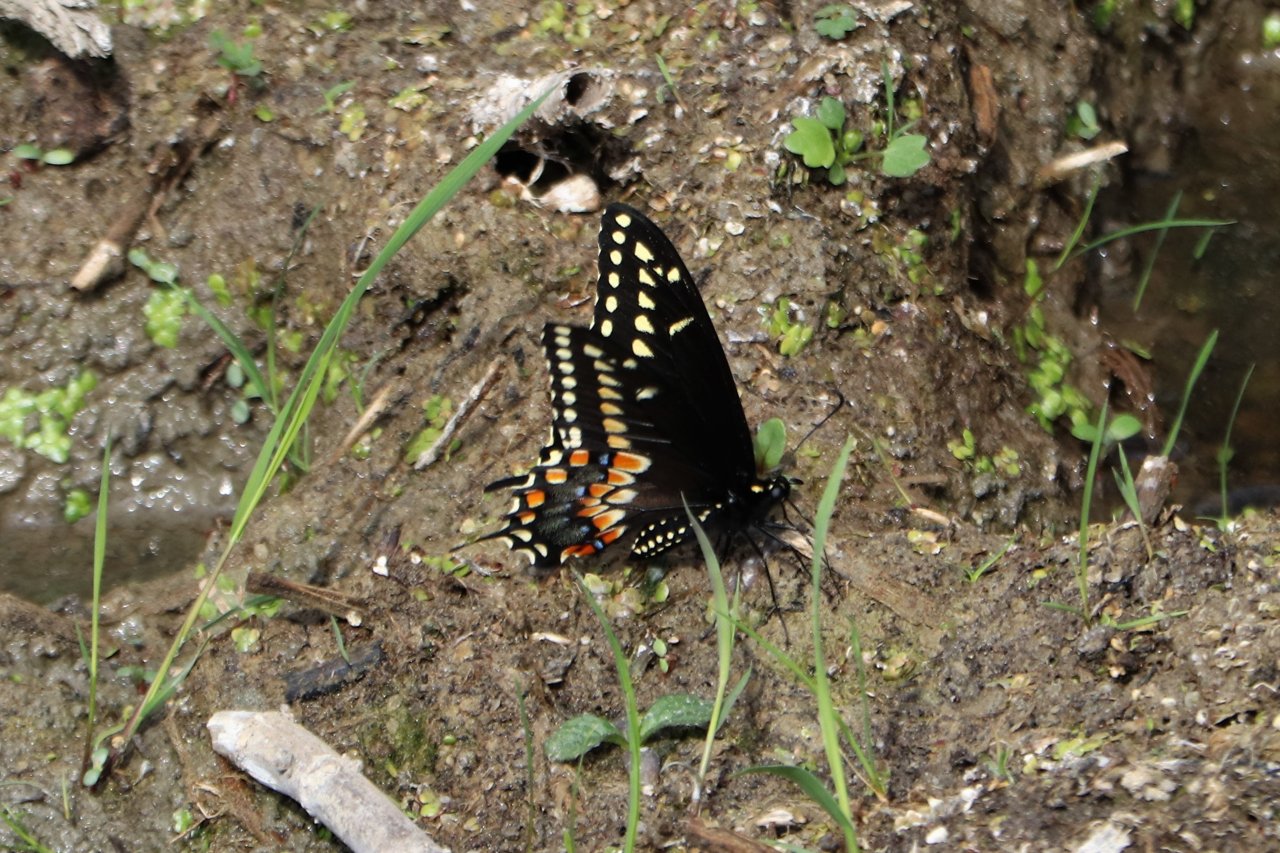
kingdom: Animalia
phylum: Arthropoda
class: Insecta
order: Lepidoptera
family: Papilionidae
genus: Papilio
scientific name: Papilio polyxenes
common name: Black Swallowtail
